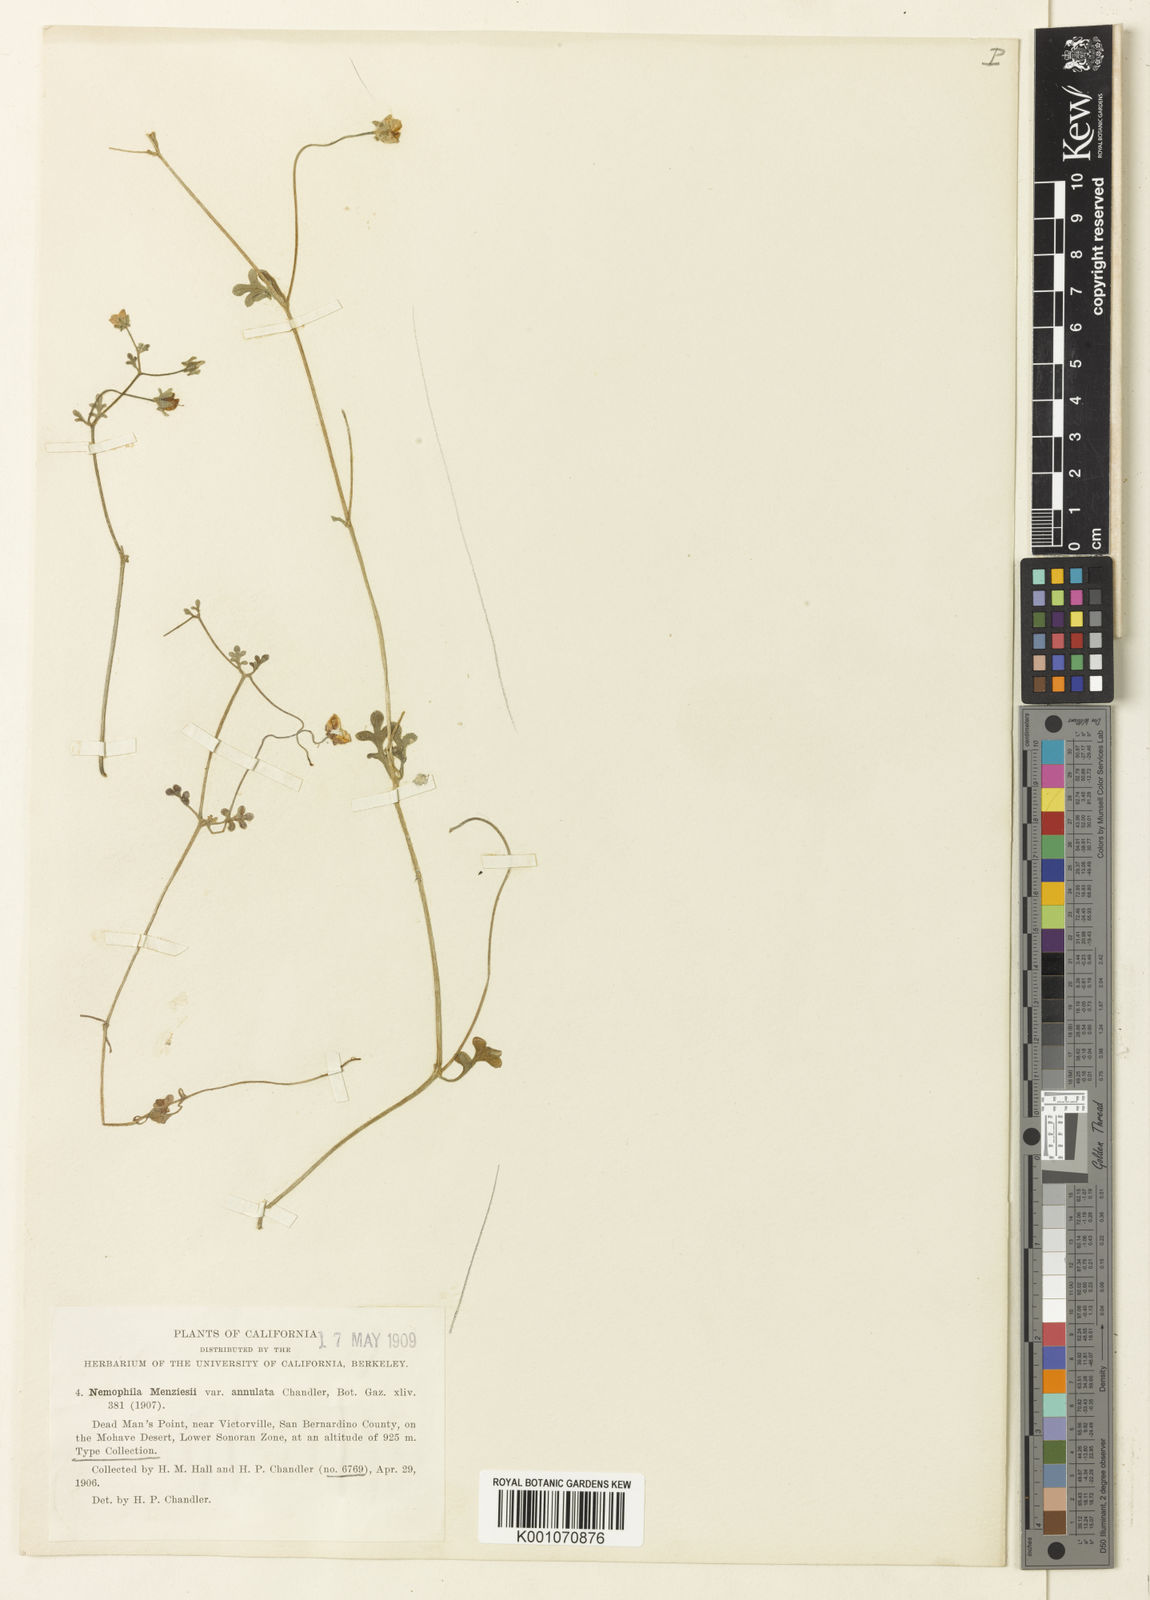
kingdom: Plantae
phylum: Tracheophyta
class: Magnoliopsida
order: Boraginales
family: Hydrophyllaceae
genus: Nemophila
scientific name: Nemophila
